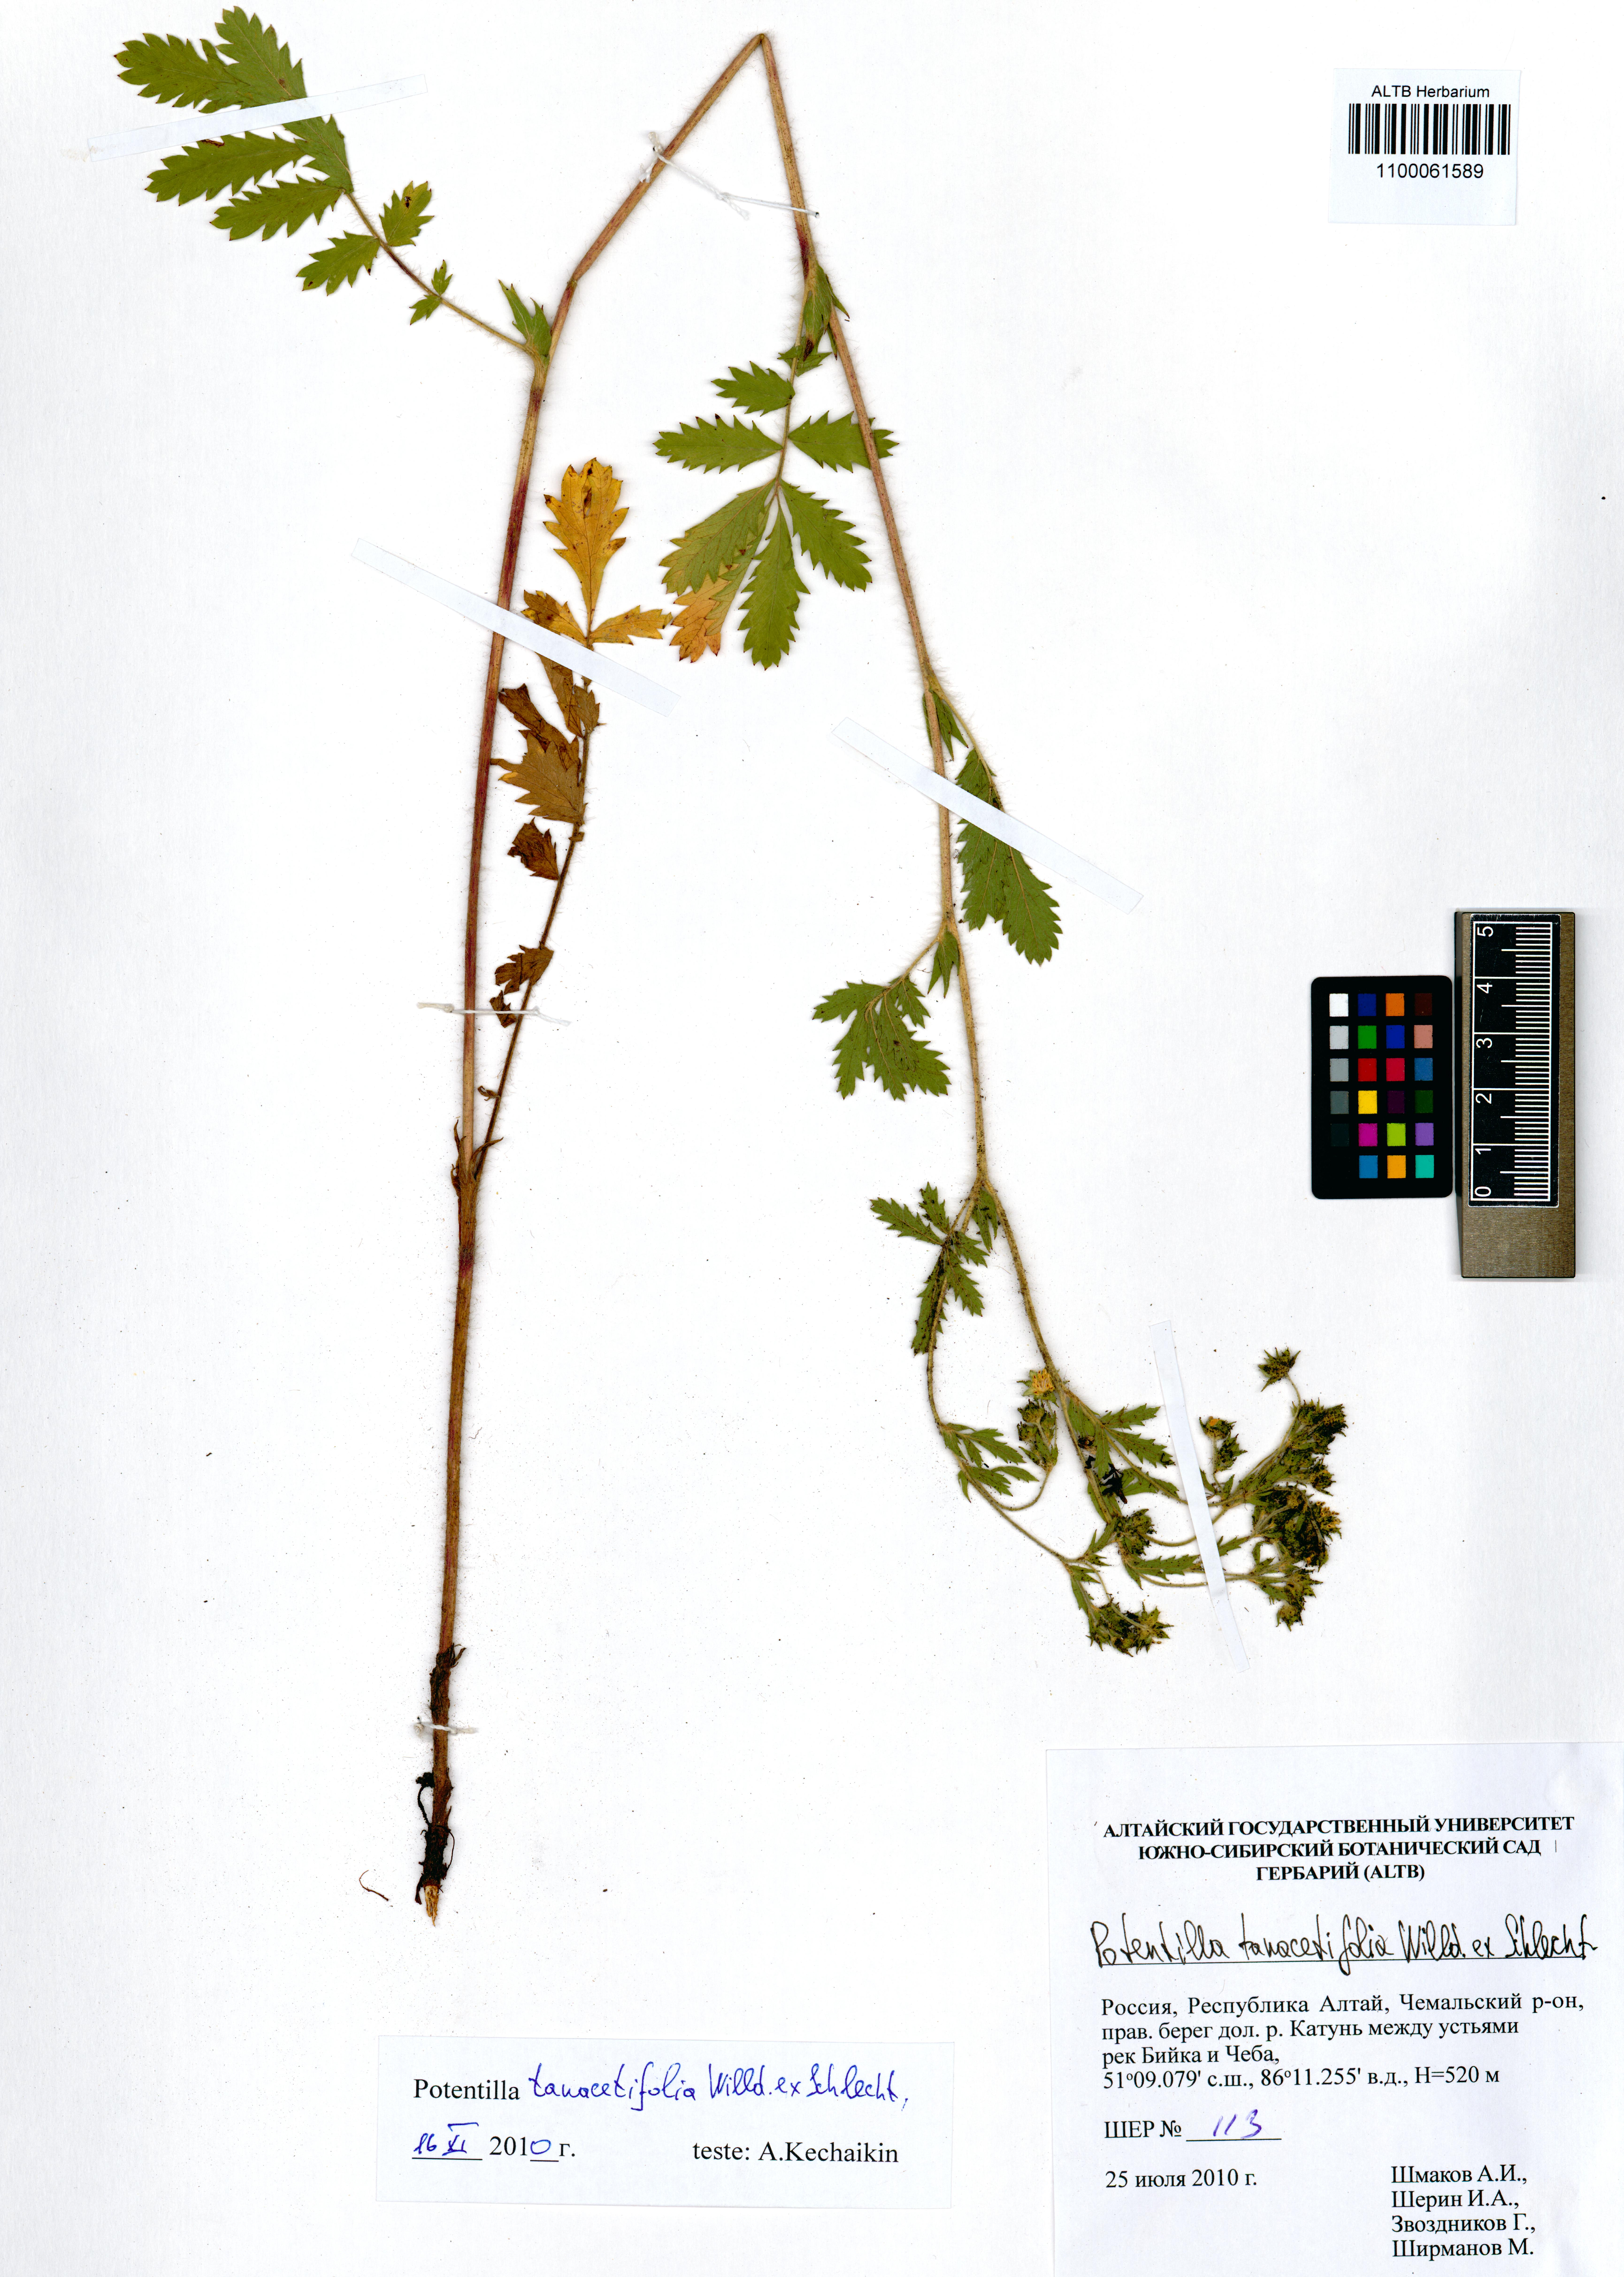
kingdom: Plantae
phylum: Tracheophyta
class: Magnoliopsida
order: Rosales
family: Rosaceae
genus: Potentilla
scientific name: Potentilla tanacetifolia
